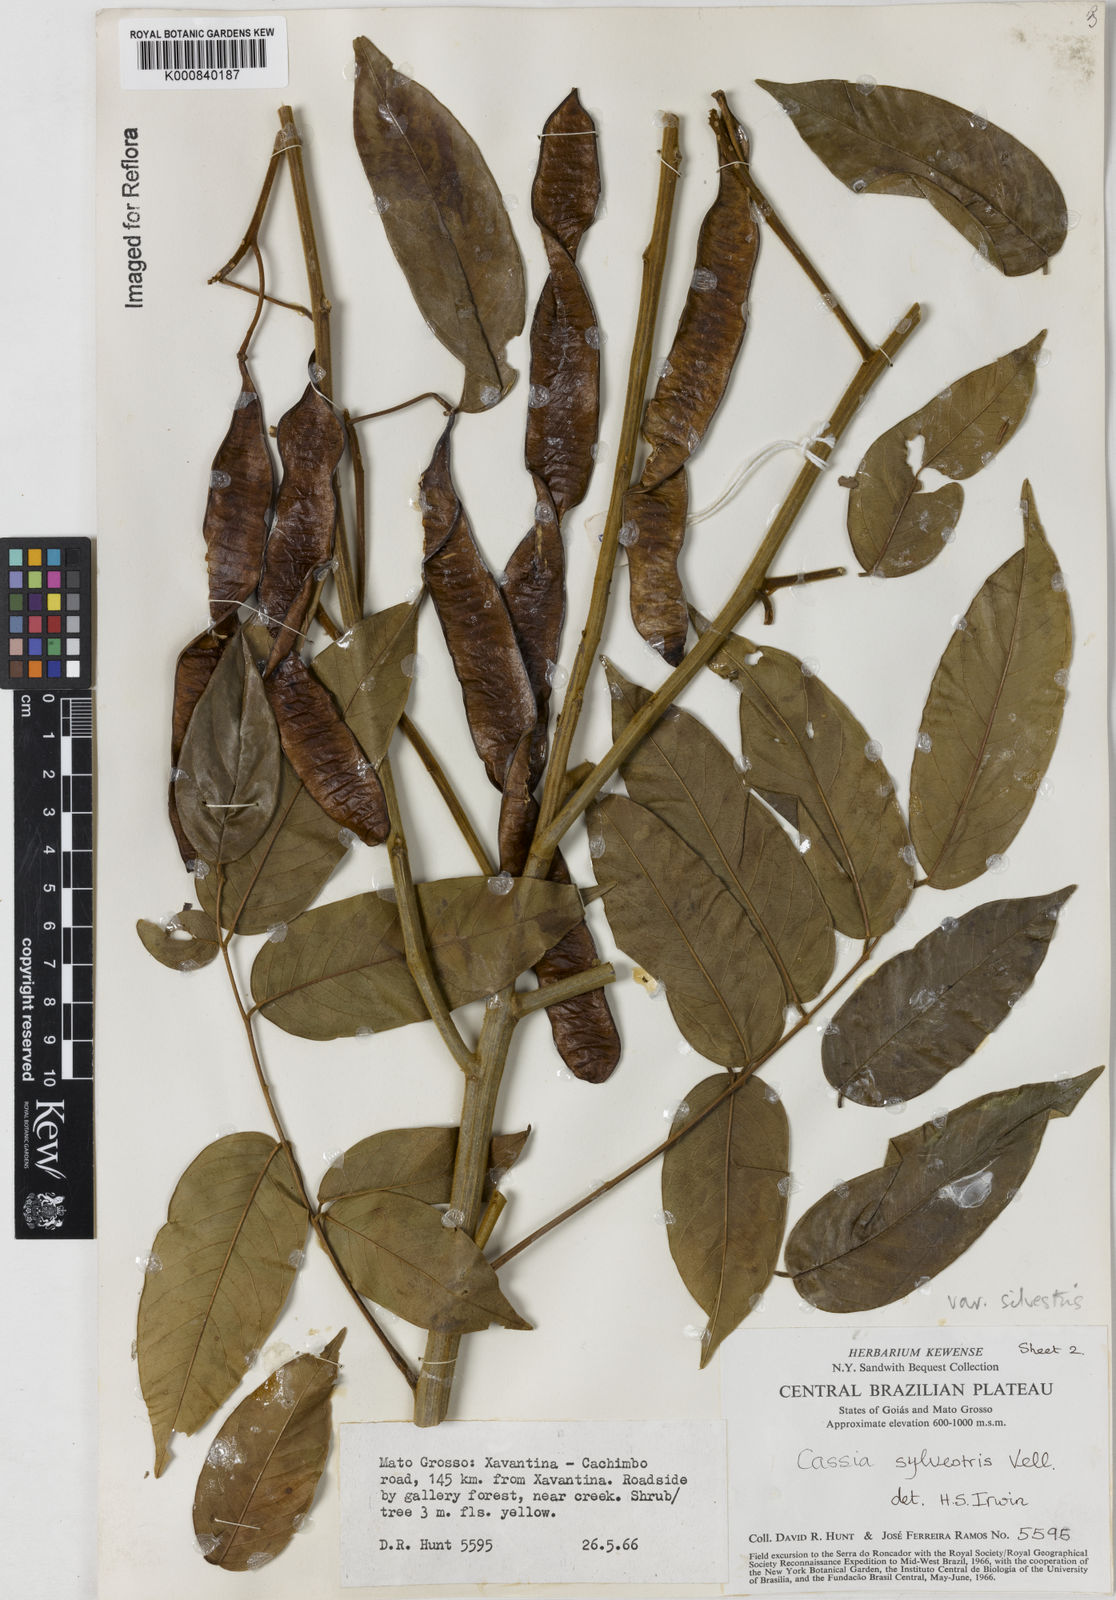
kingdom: Plantae
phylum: Tracheophyta
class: Magnoliopsida
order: Fabales
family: Fabaceae
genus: Senna
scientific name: Senna silvestris
